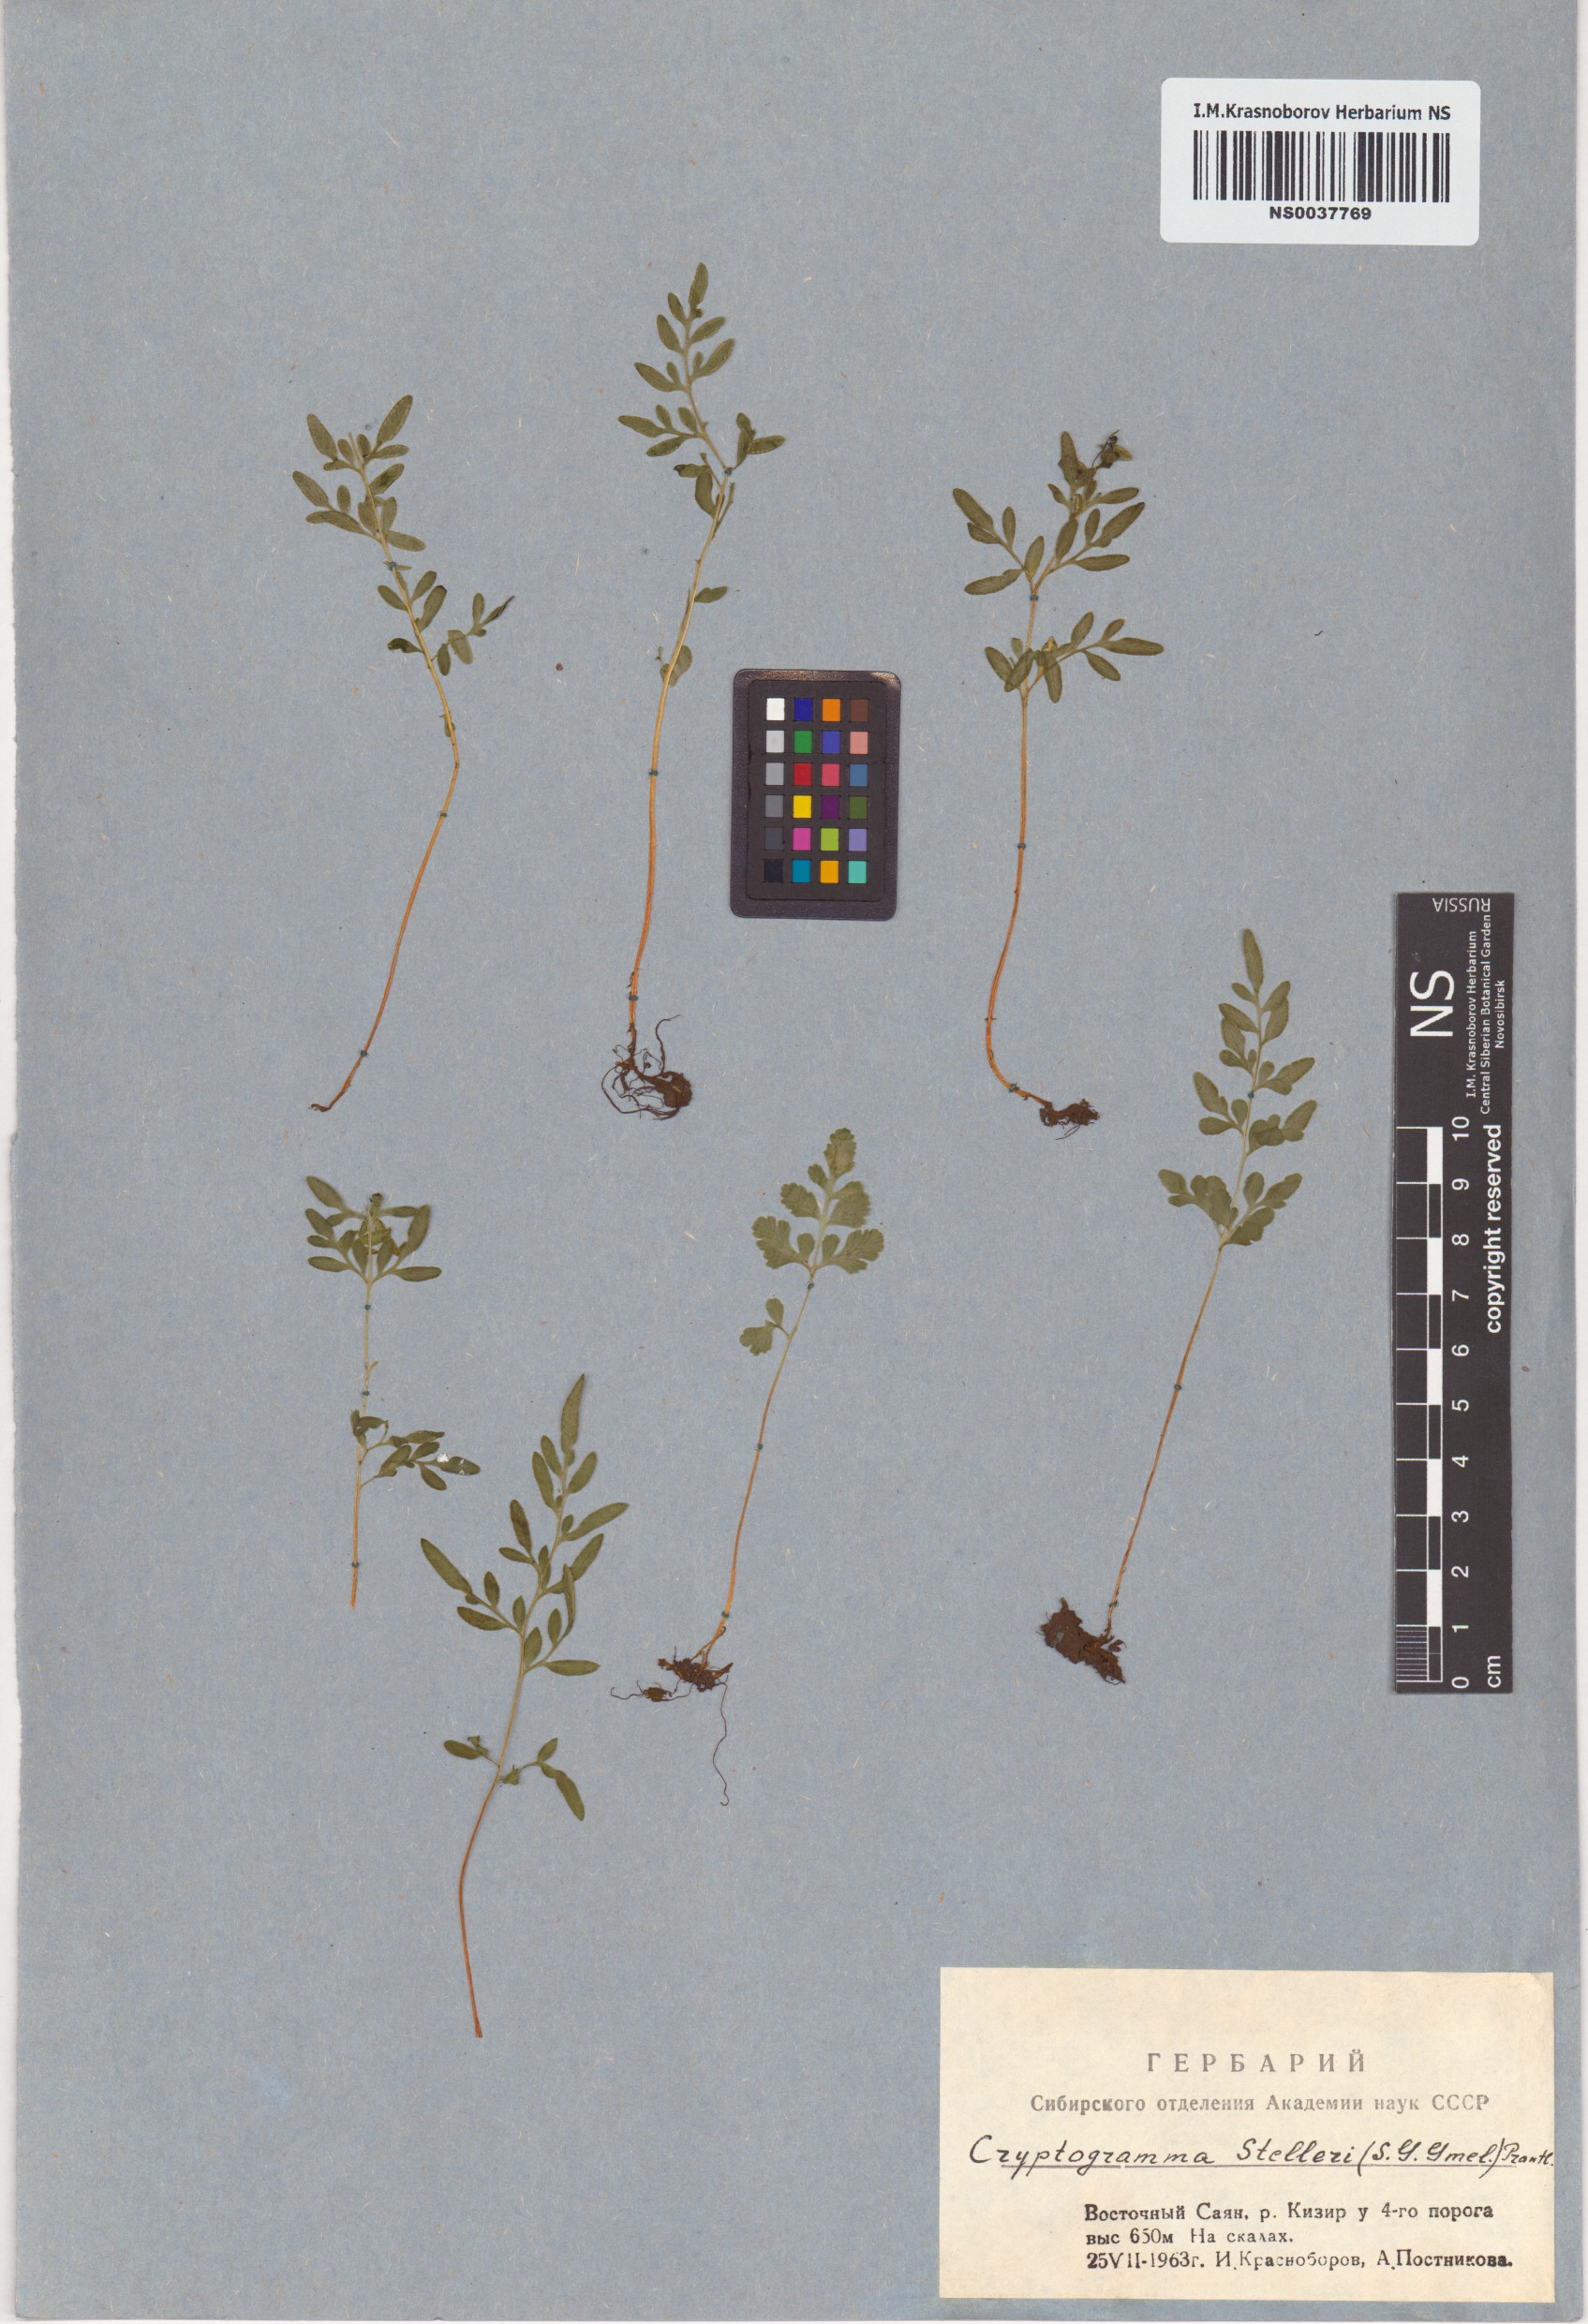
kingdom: Plantae
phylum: Tracheophyta
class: Polypodiopsida
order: Polypodiales
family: Pteridaceae
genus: Cryptogramma
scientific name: Cryptogramma stelleri
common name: Cliff-brake
